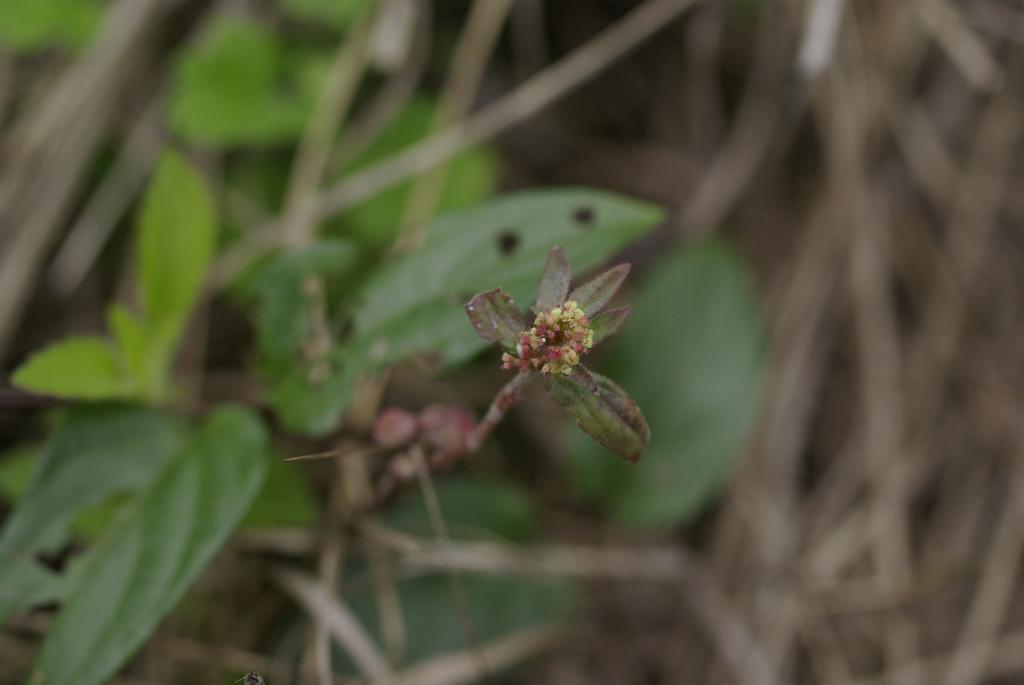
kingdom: Plantae
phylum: Tracheophyta
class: Magnoliopsida
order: Malpighiales
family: Euphorbiaceae
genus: Euphorbia
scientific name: Euphorbia hirta
